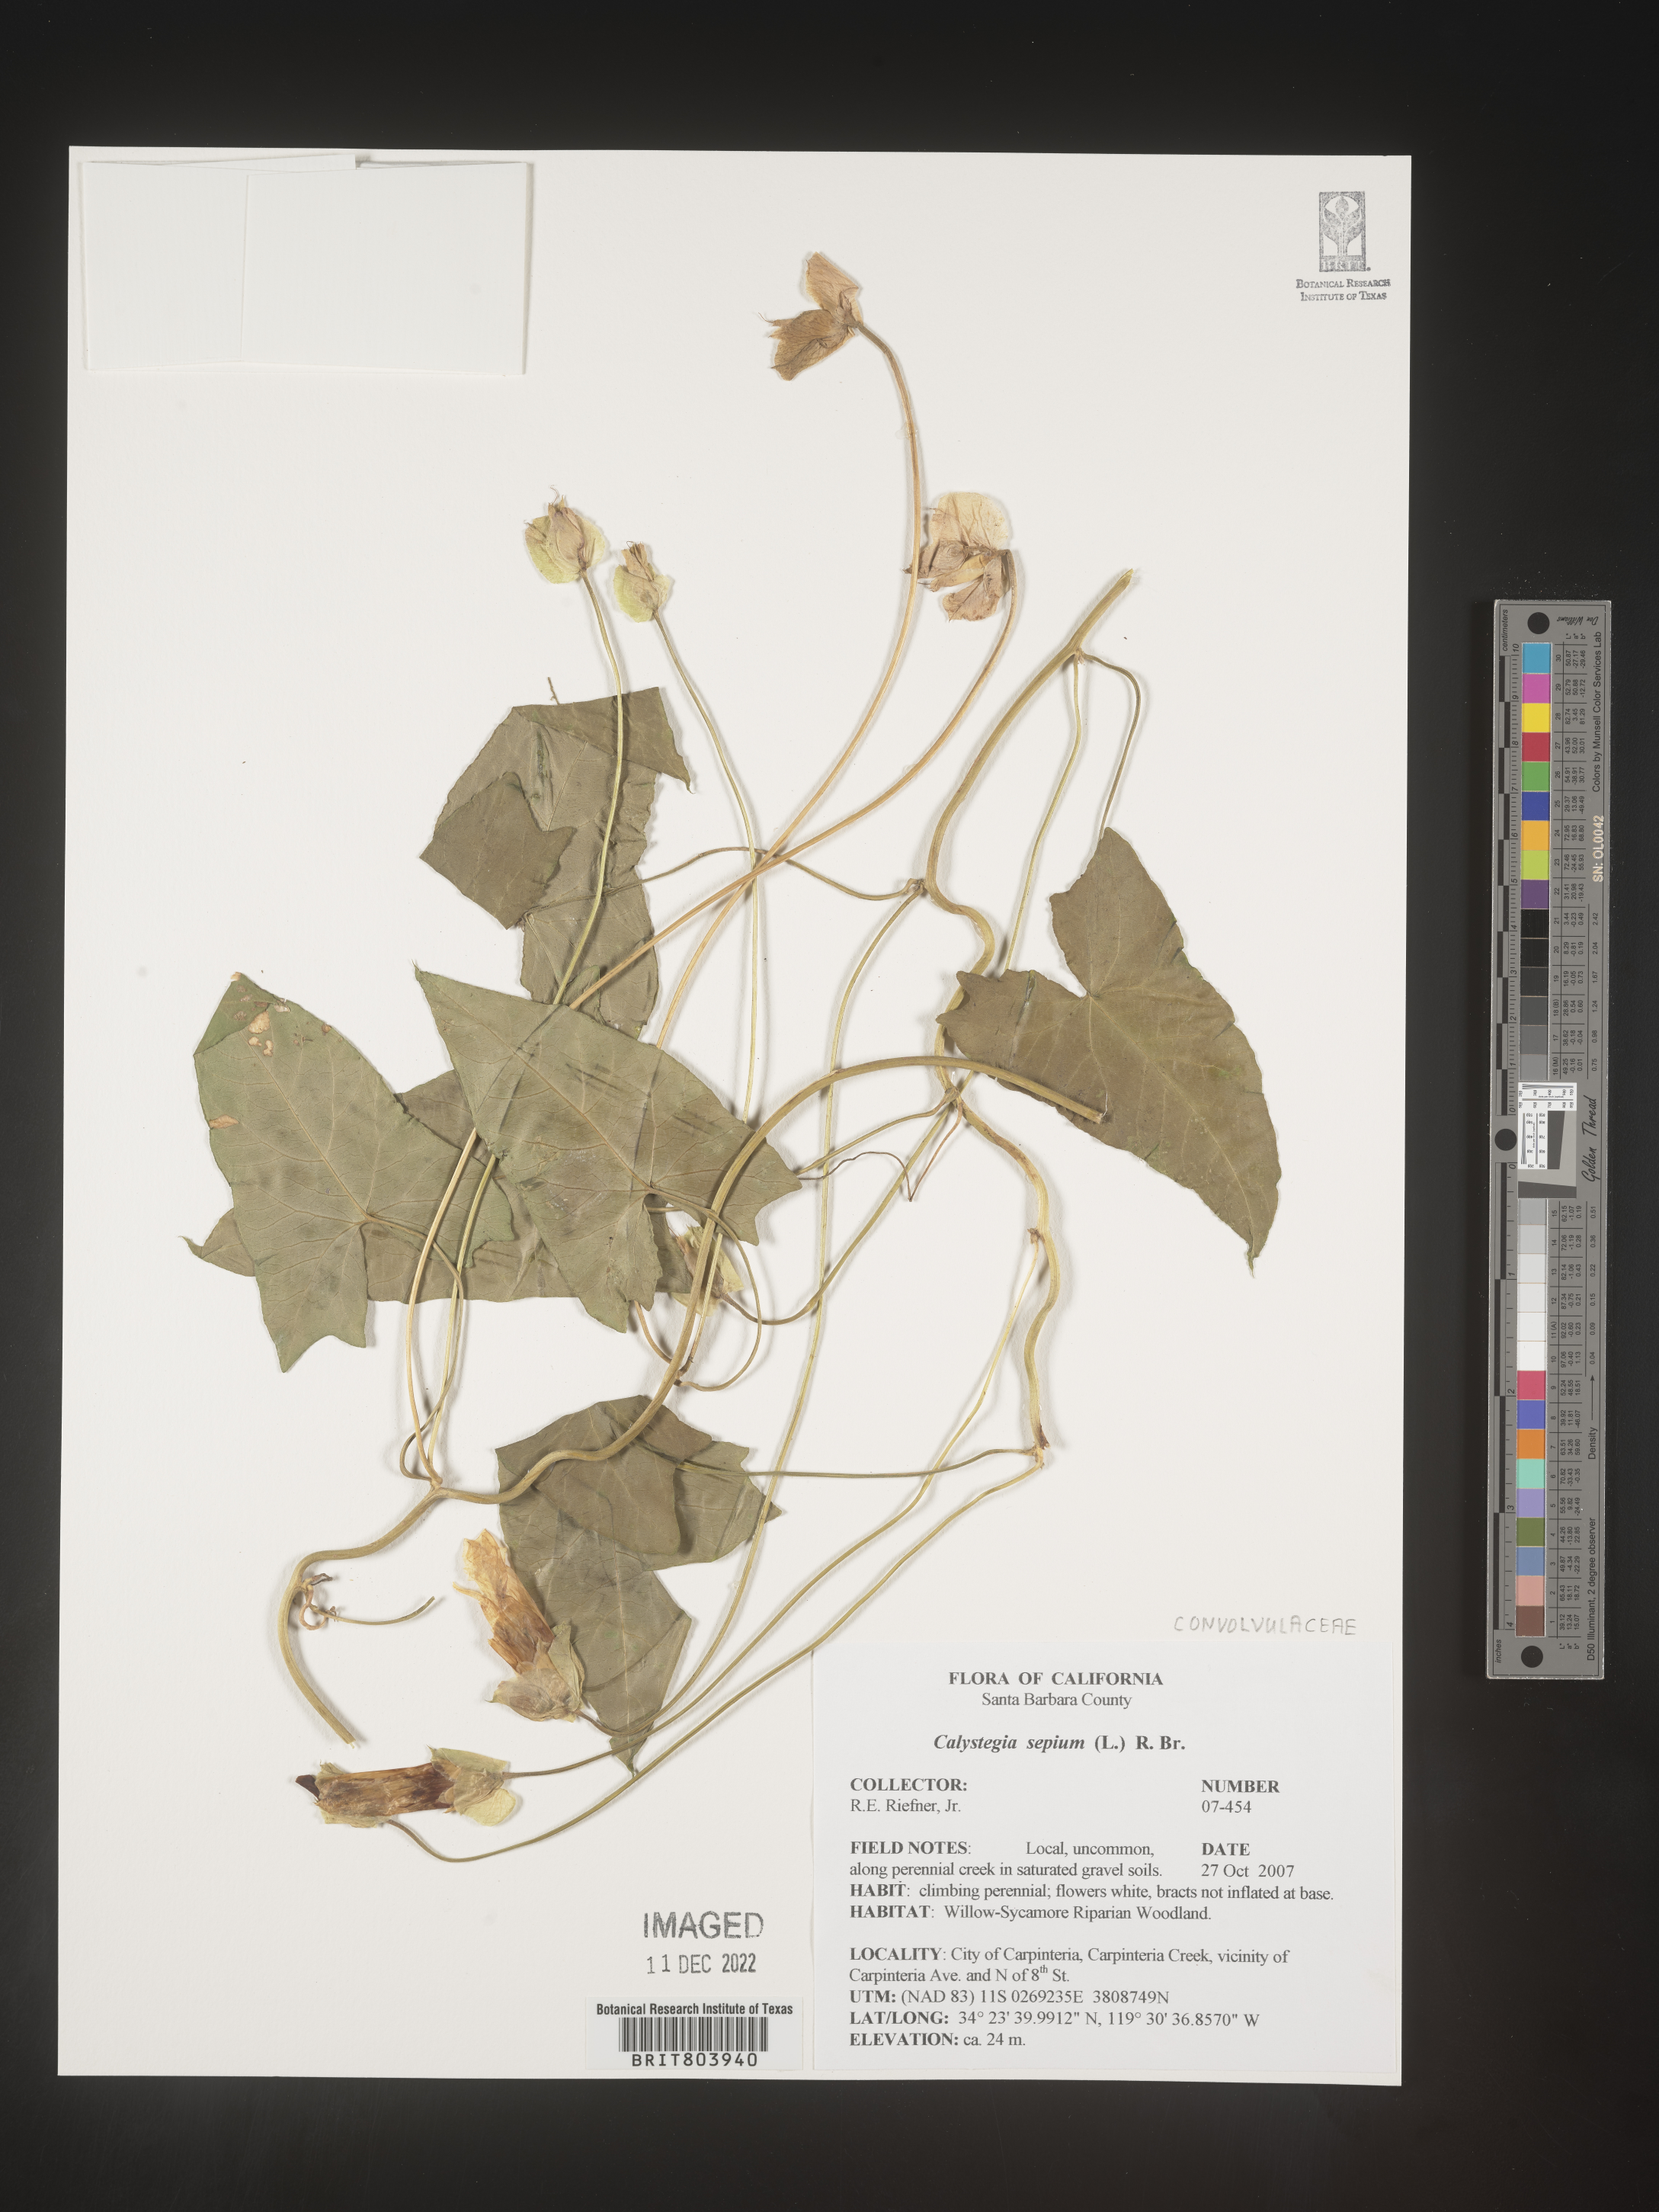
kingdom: Plantae
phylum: Tracheophyta
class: Magnoliopsida
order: Solanales
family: Convolvulaceae
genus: Calystegia
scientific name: Calystegia sepium
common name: Hedge bindweed
